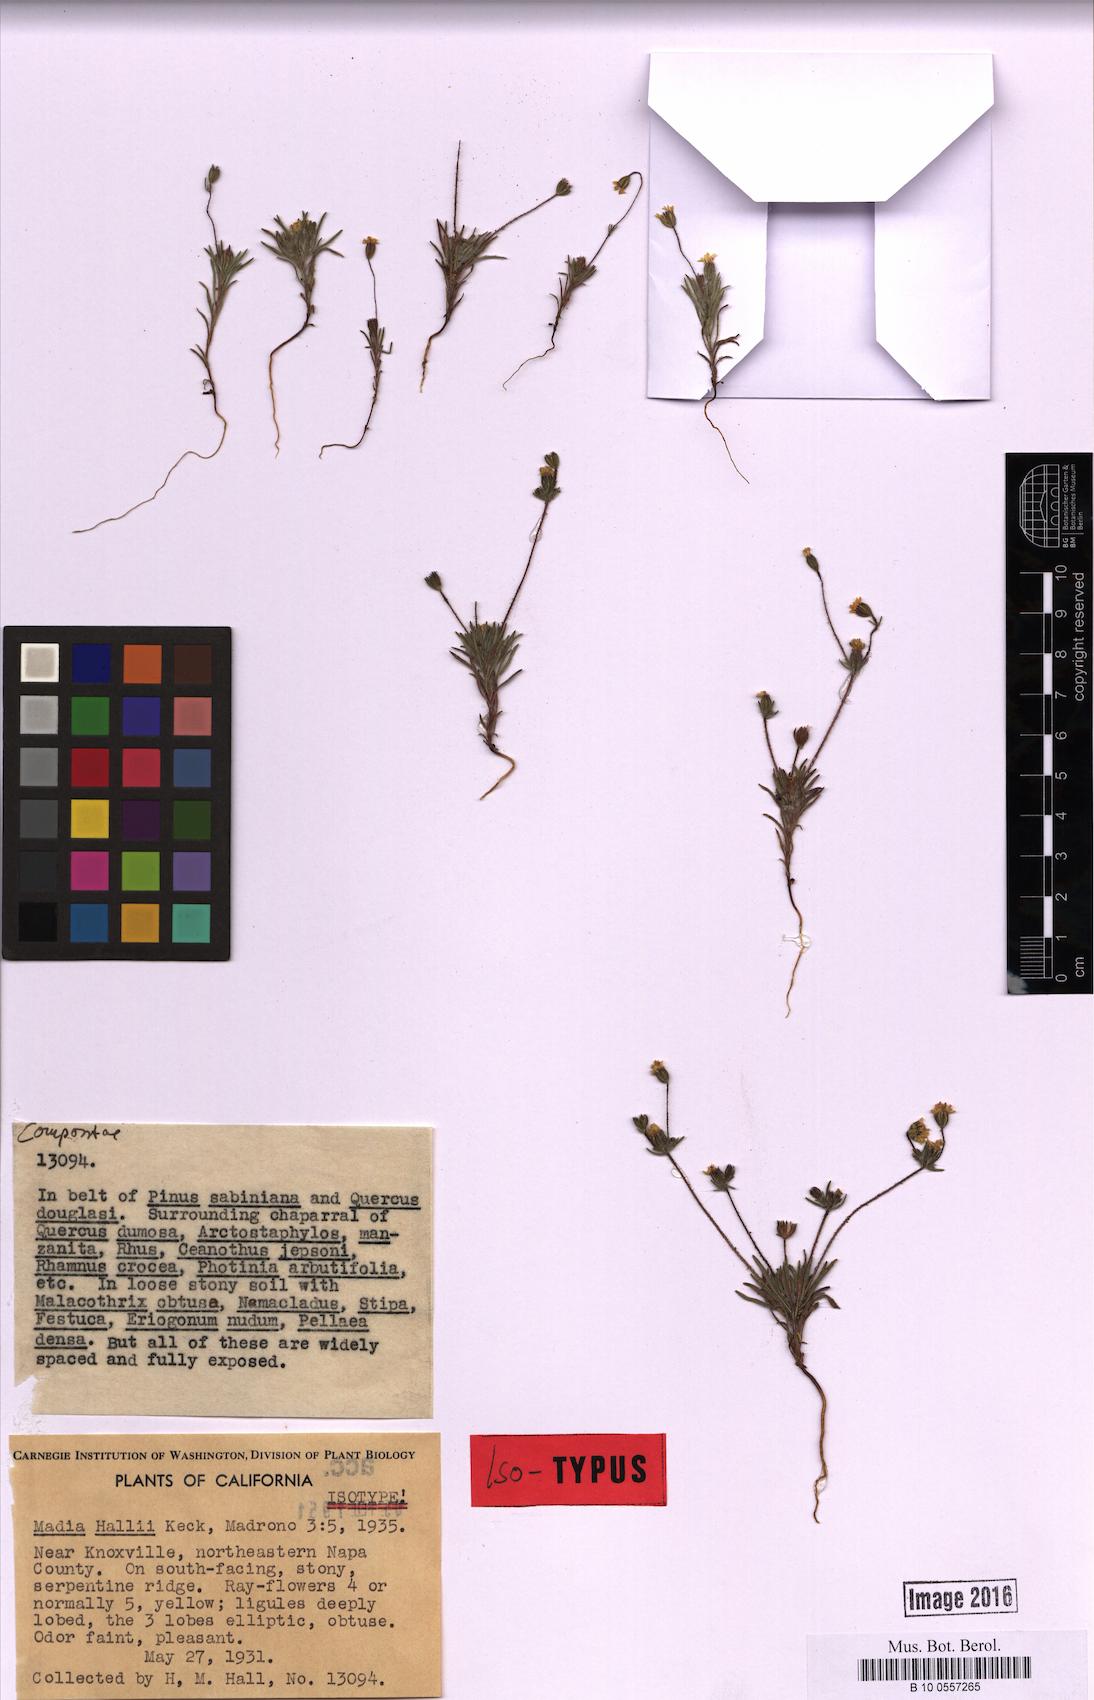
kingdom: Plantae
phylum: Tracheophyta
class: Magnoliopsida
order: Asterales
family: Asteraceae
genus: Harmonia
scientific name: Harmonia hallii
